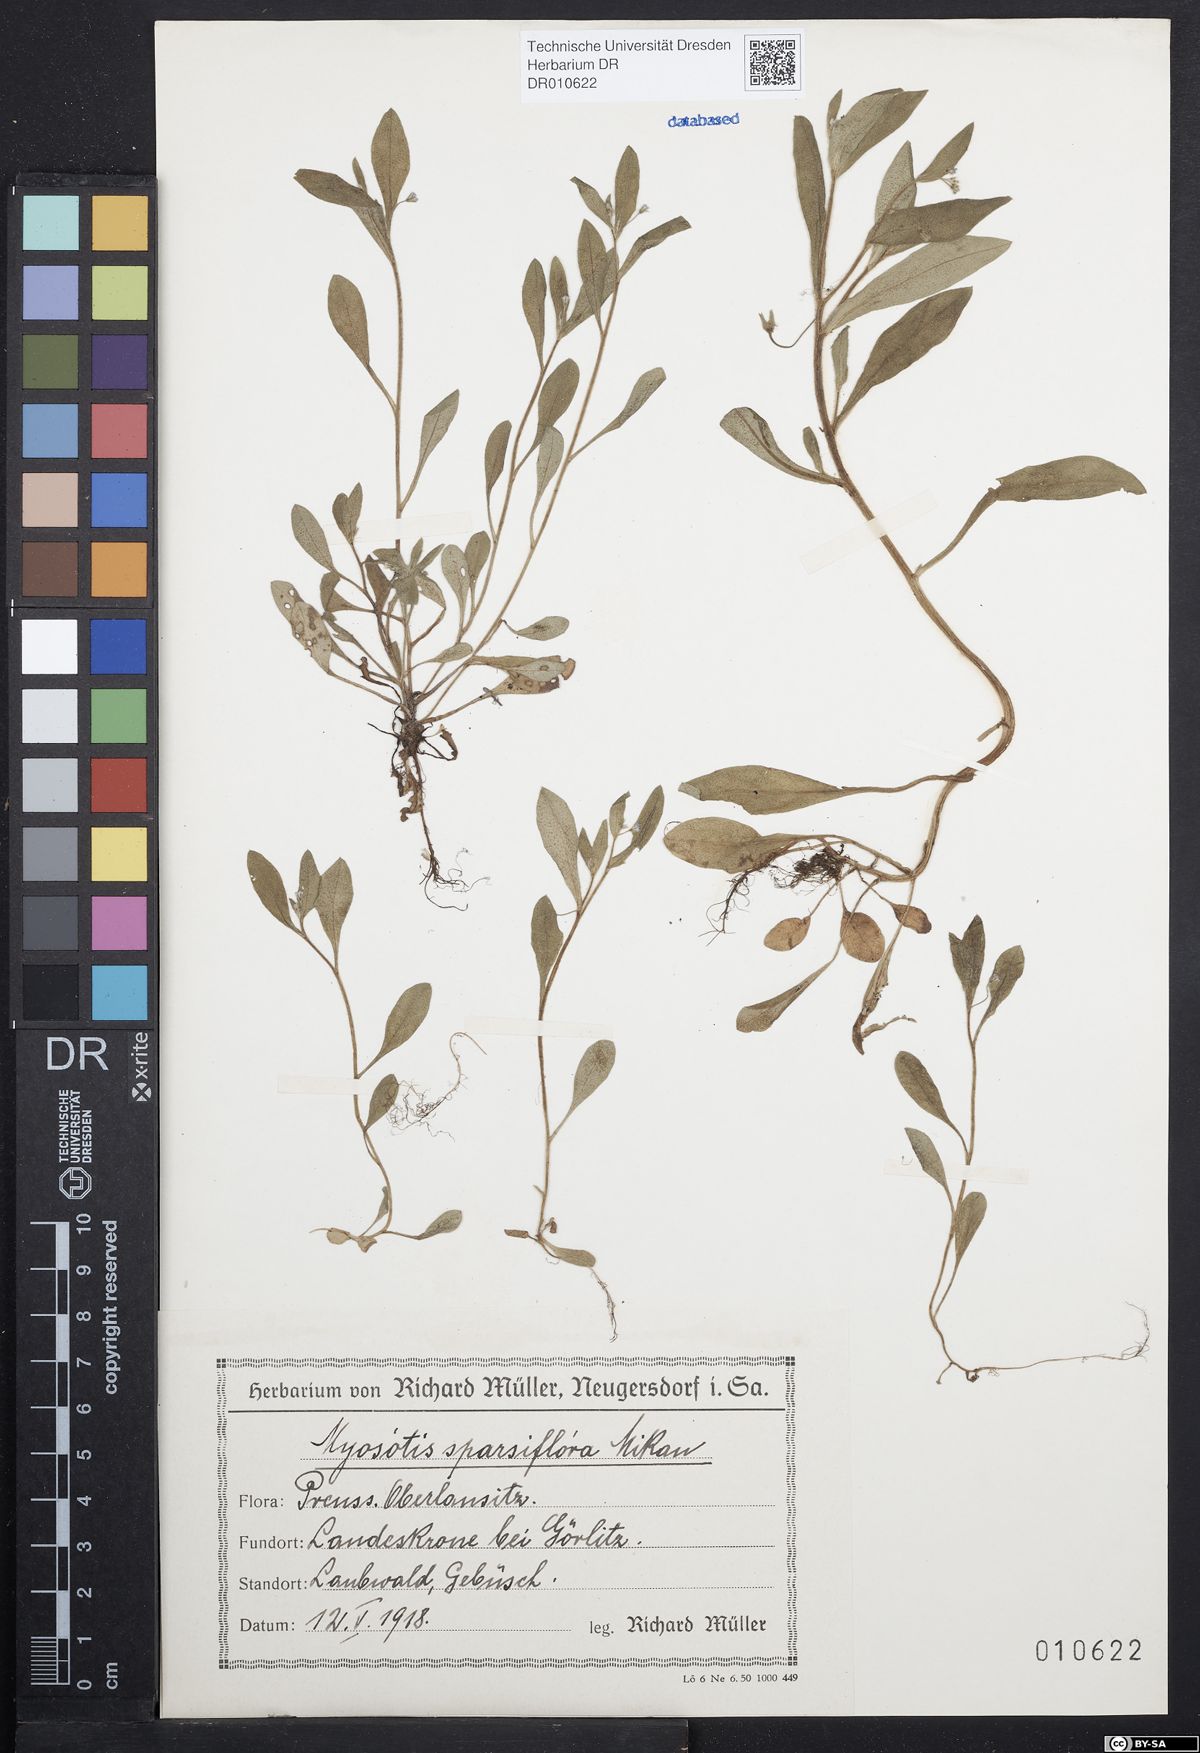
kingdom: Plantae
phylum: Tracheophyta
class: Magnoliopsida
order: Boraginales
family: Boraginaceae
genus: Myosotis
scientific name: Myosotis sparsiflora
